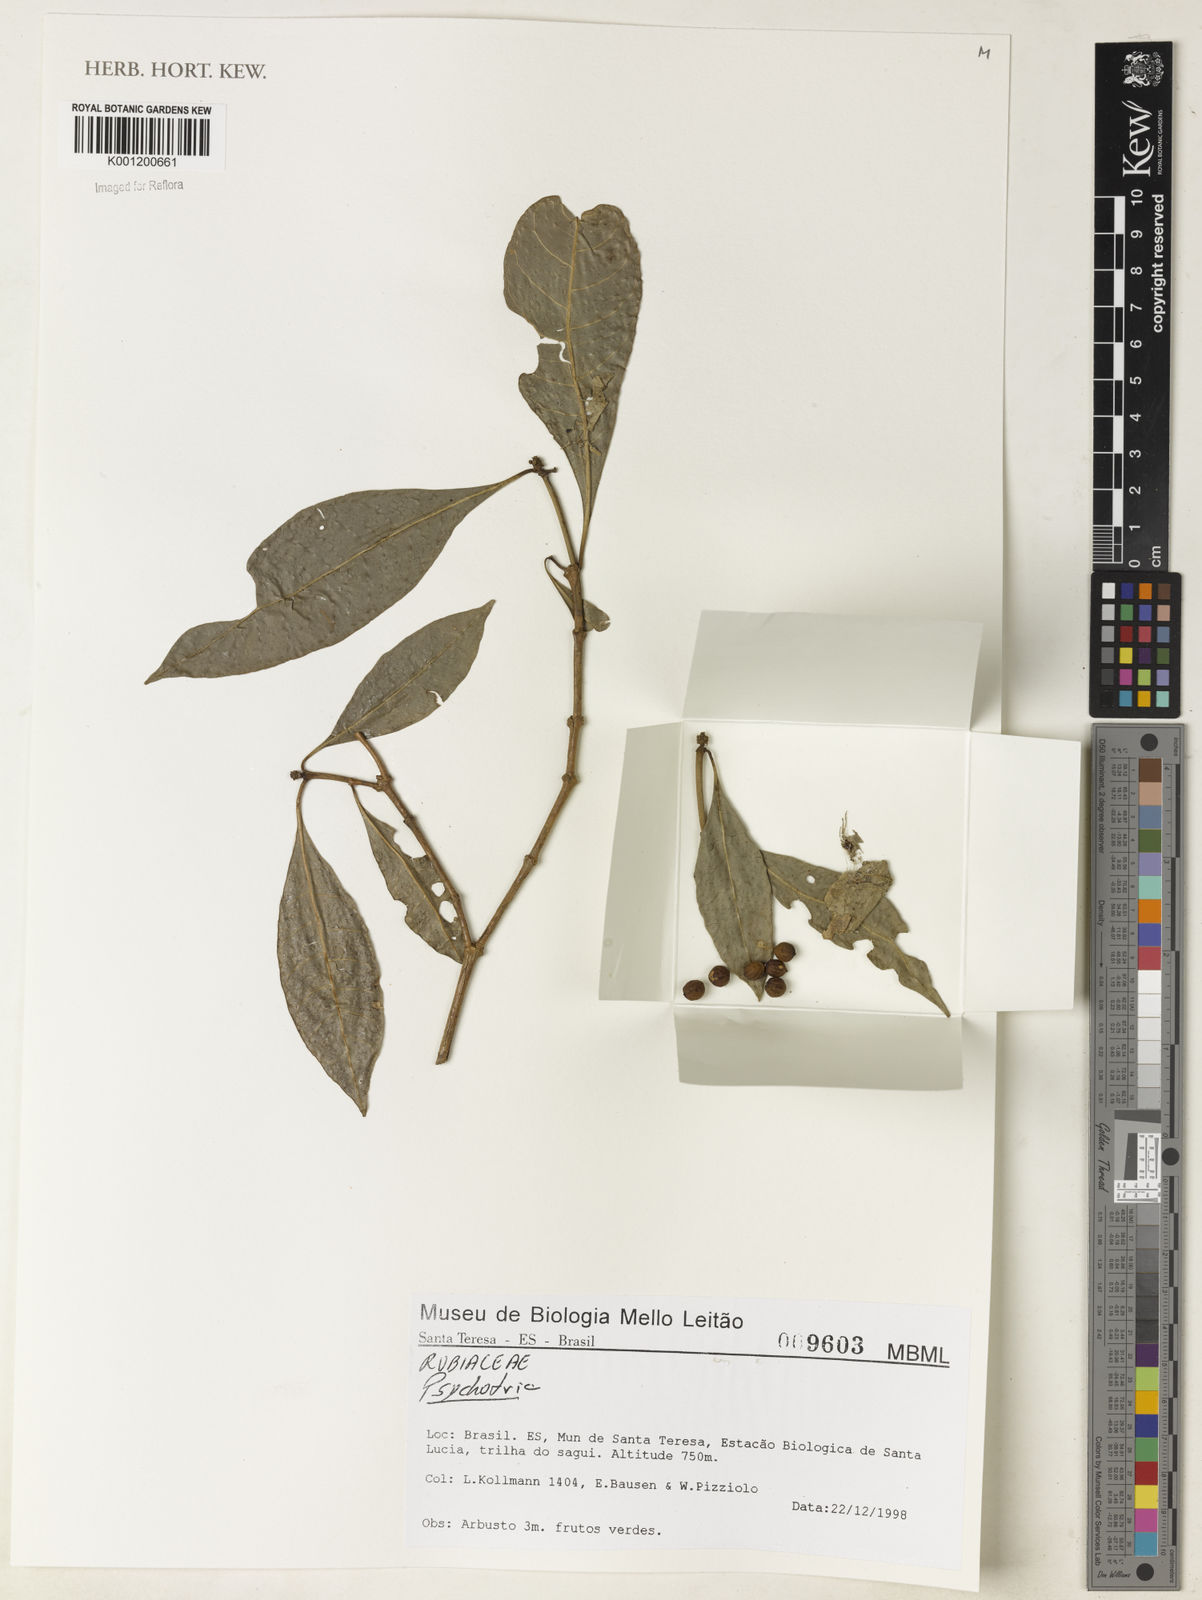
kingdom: Plantae
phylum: Tracheophyta
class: Magnoliopsida
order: Gentianales
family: Rubiaceae
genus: Psychotria
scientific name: Psychotria
